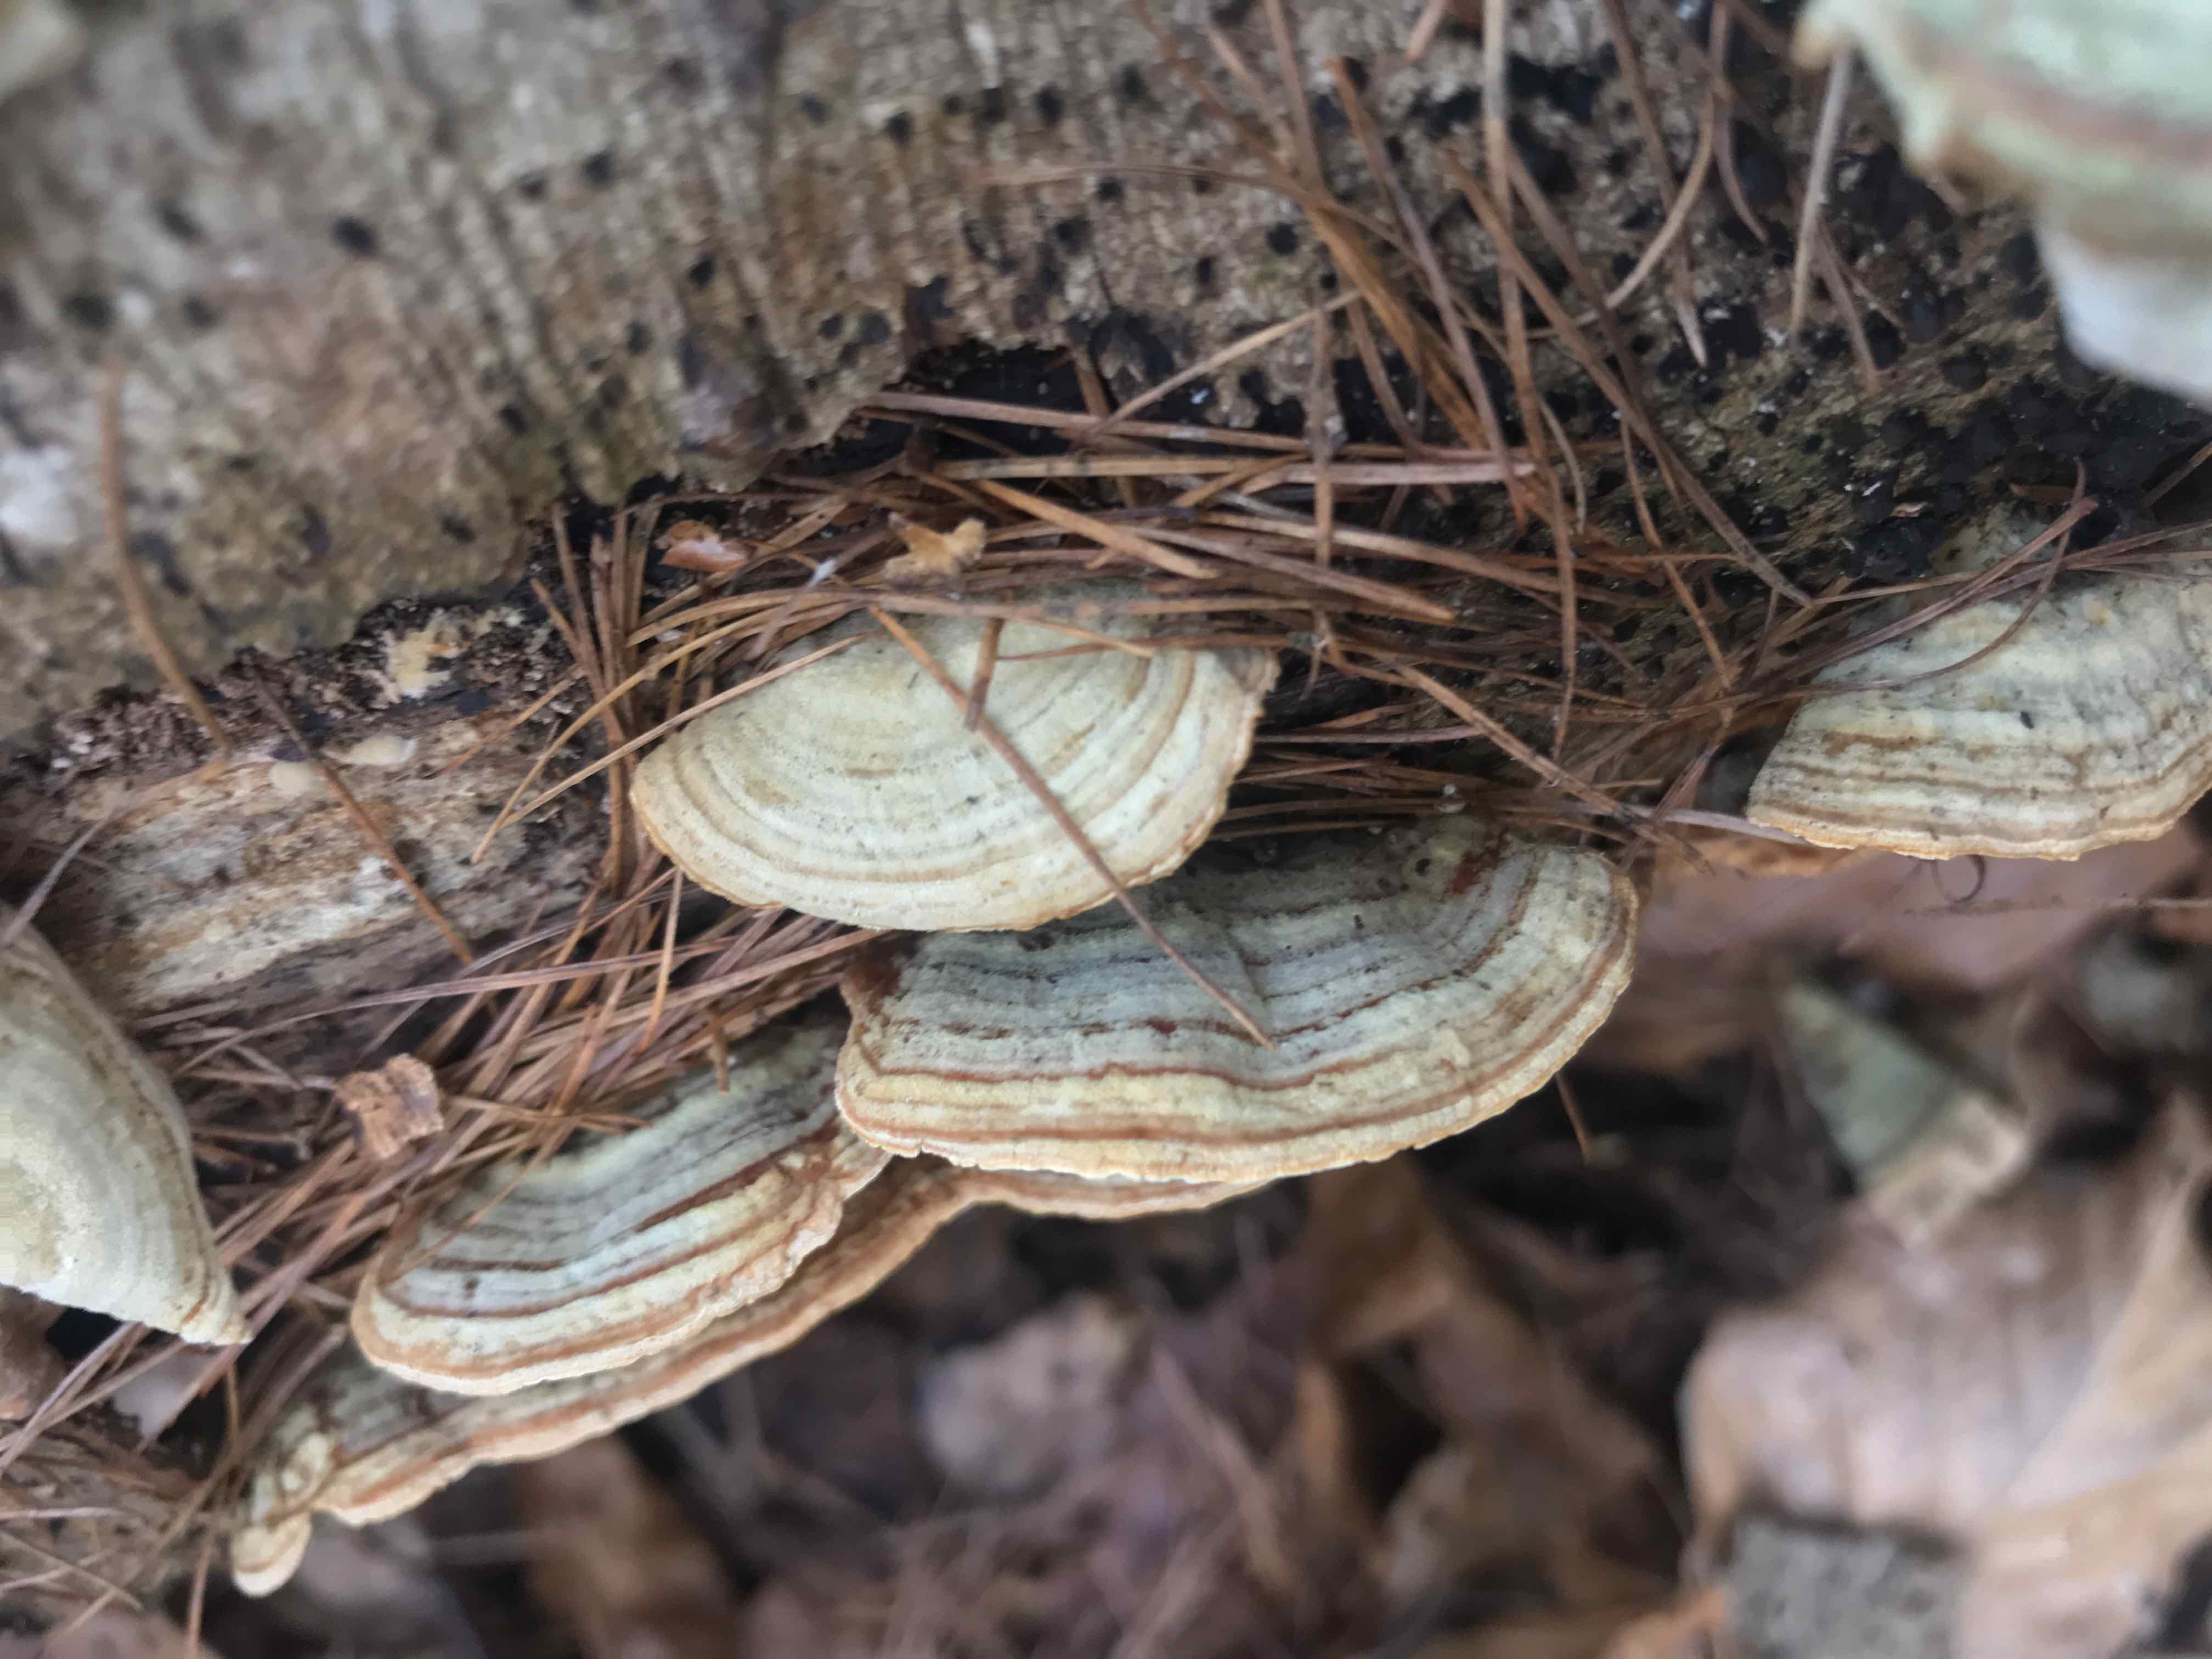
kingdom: Fungi
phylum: Basidiomycota
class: Agaricomycetes
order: Russulales
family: Stereaceae
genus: Stereum
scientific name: Stereum subtomentosum
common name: smuk lædersvamp
